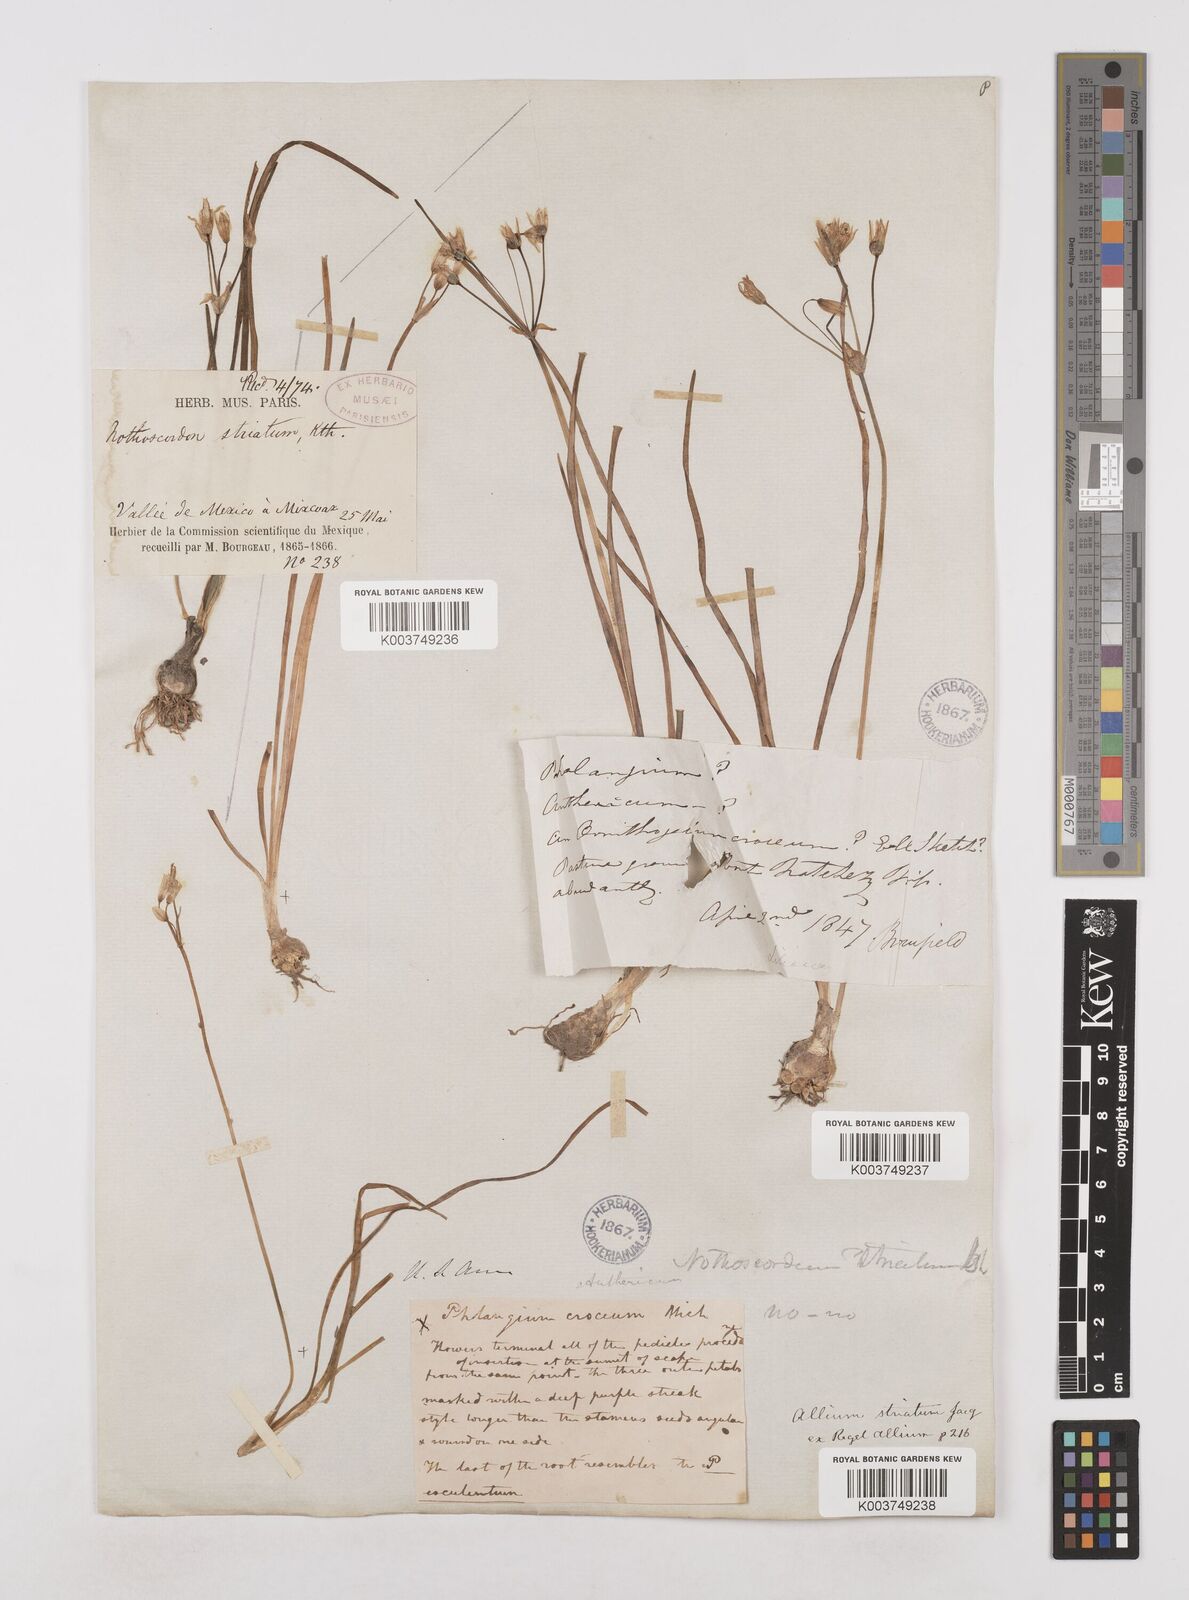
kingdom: Plantae
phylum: Tracheophyta
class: Liliopsida
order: Asparagales
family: Amaryllidaceae
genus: Nothoscordum
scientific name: Nothoscordum bivalve
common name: Crow-poison
